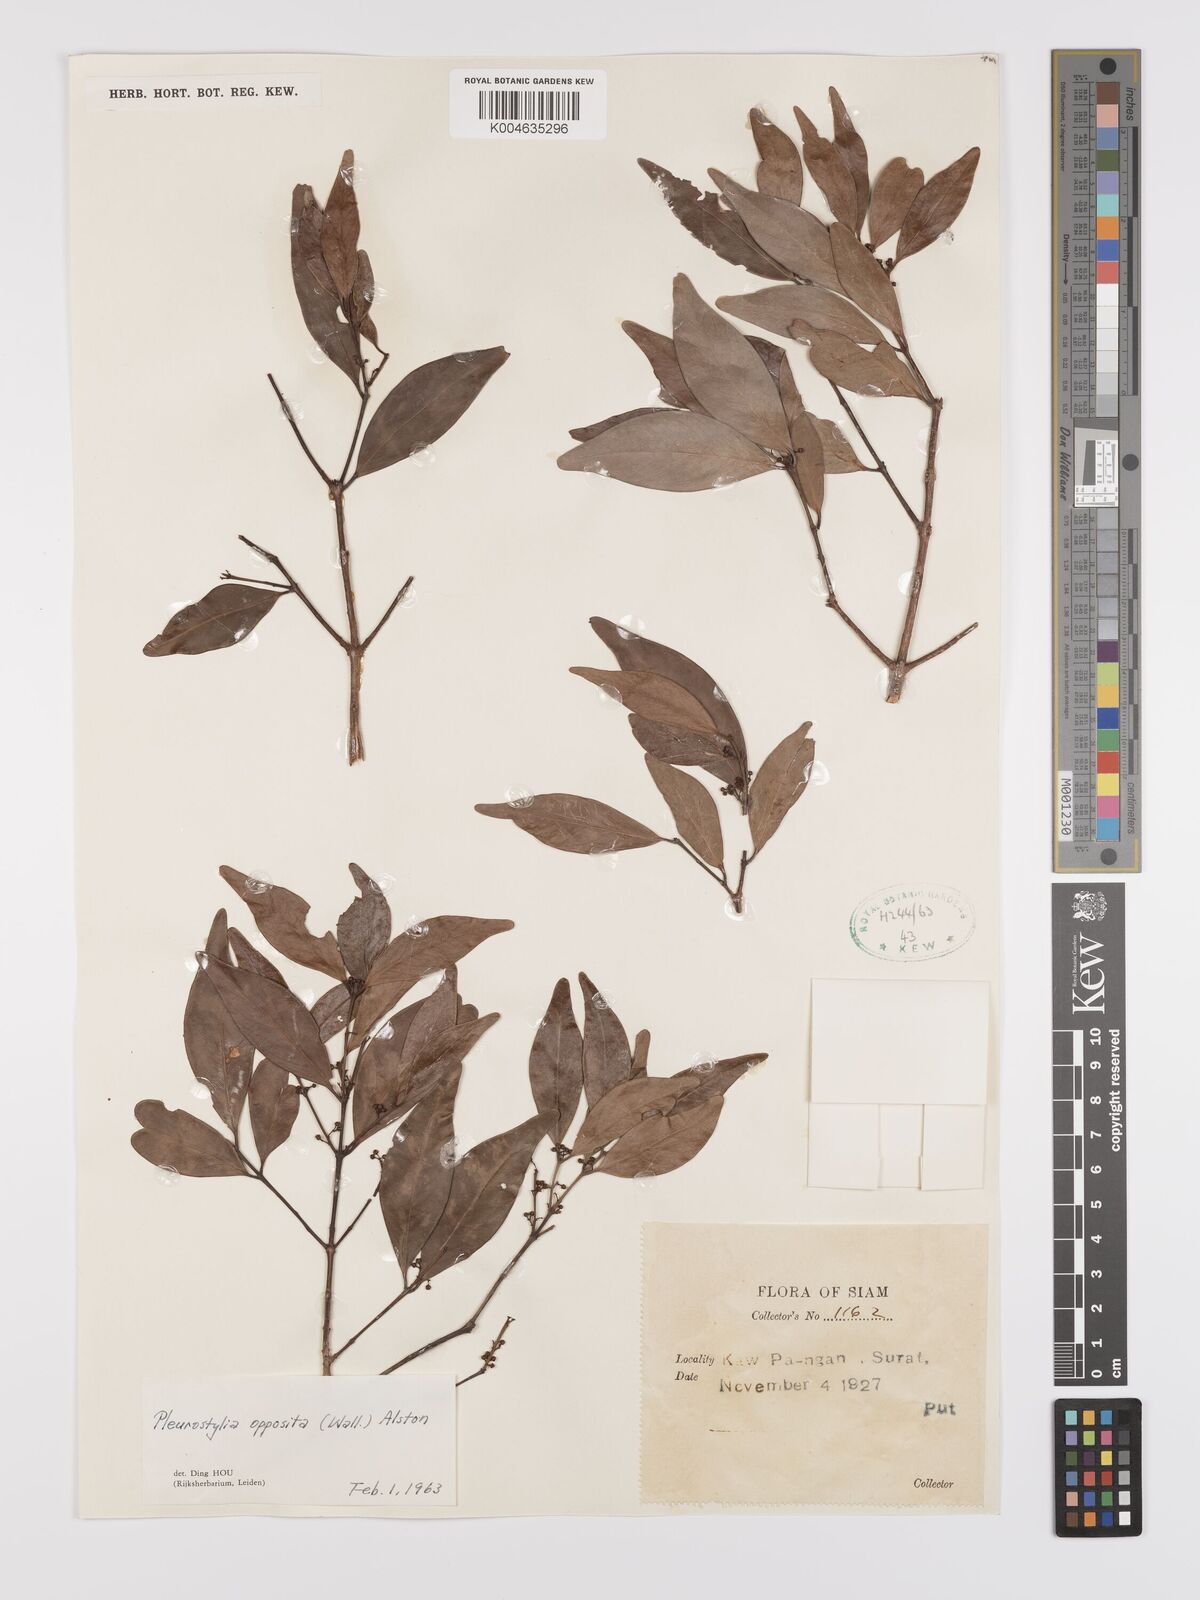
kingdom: Plantae
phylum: Tracheophyta
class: Magnoliopsida
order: Celastrales
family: Celastraceae
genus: Pleurostylia
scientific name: Pleurostylia opposita
